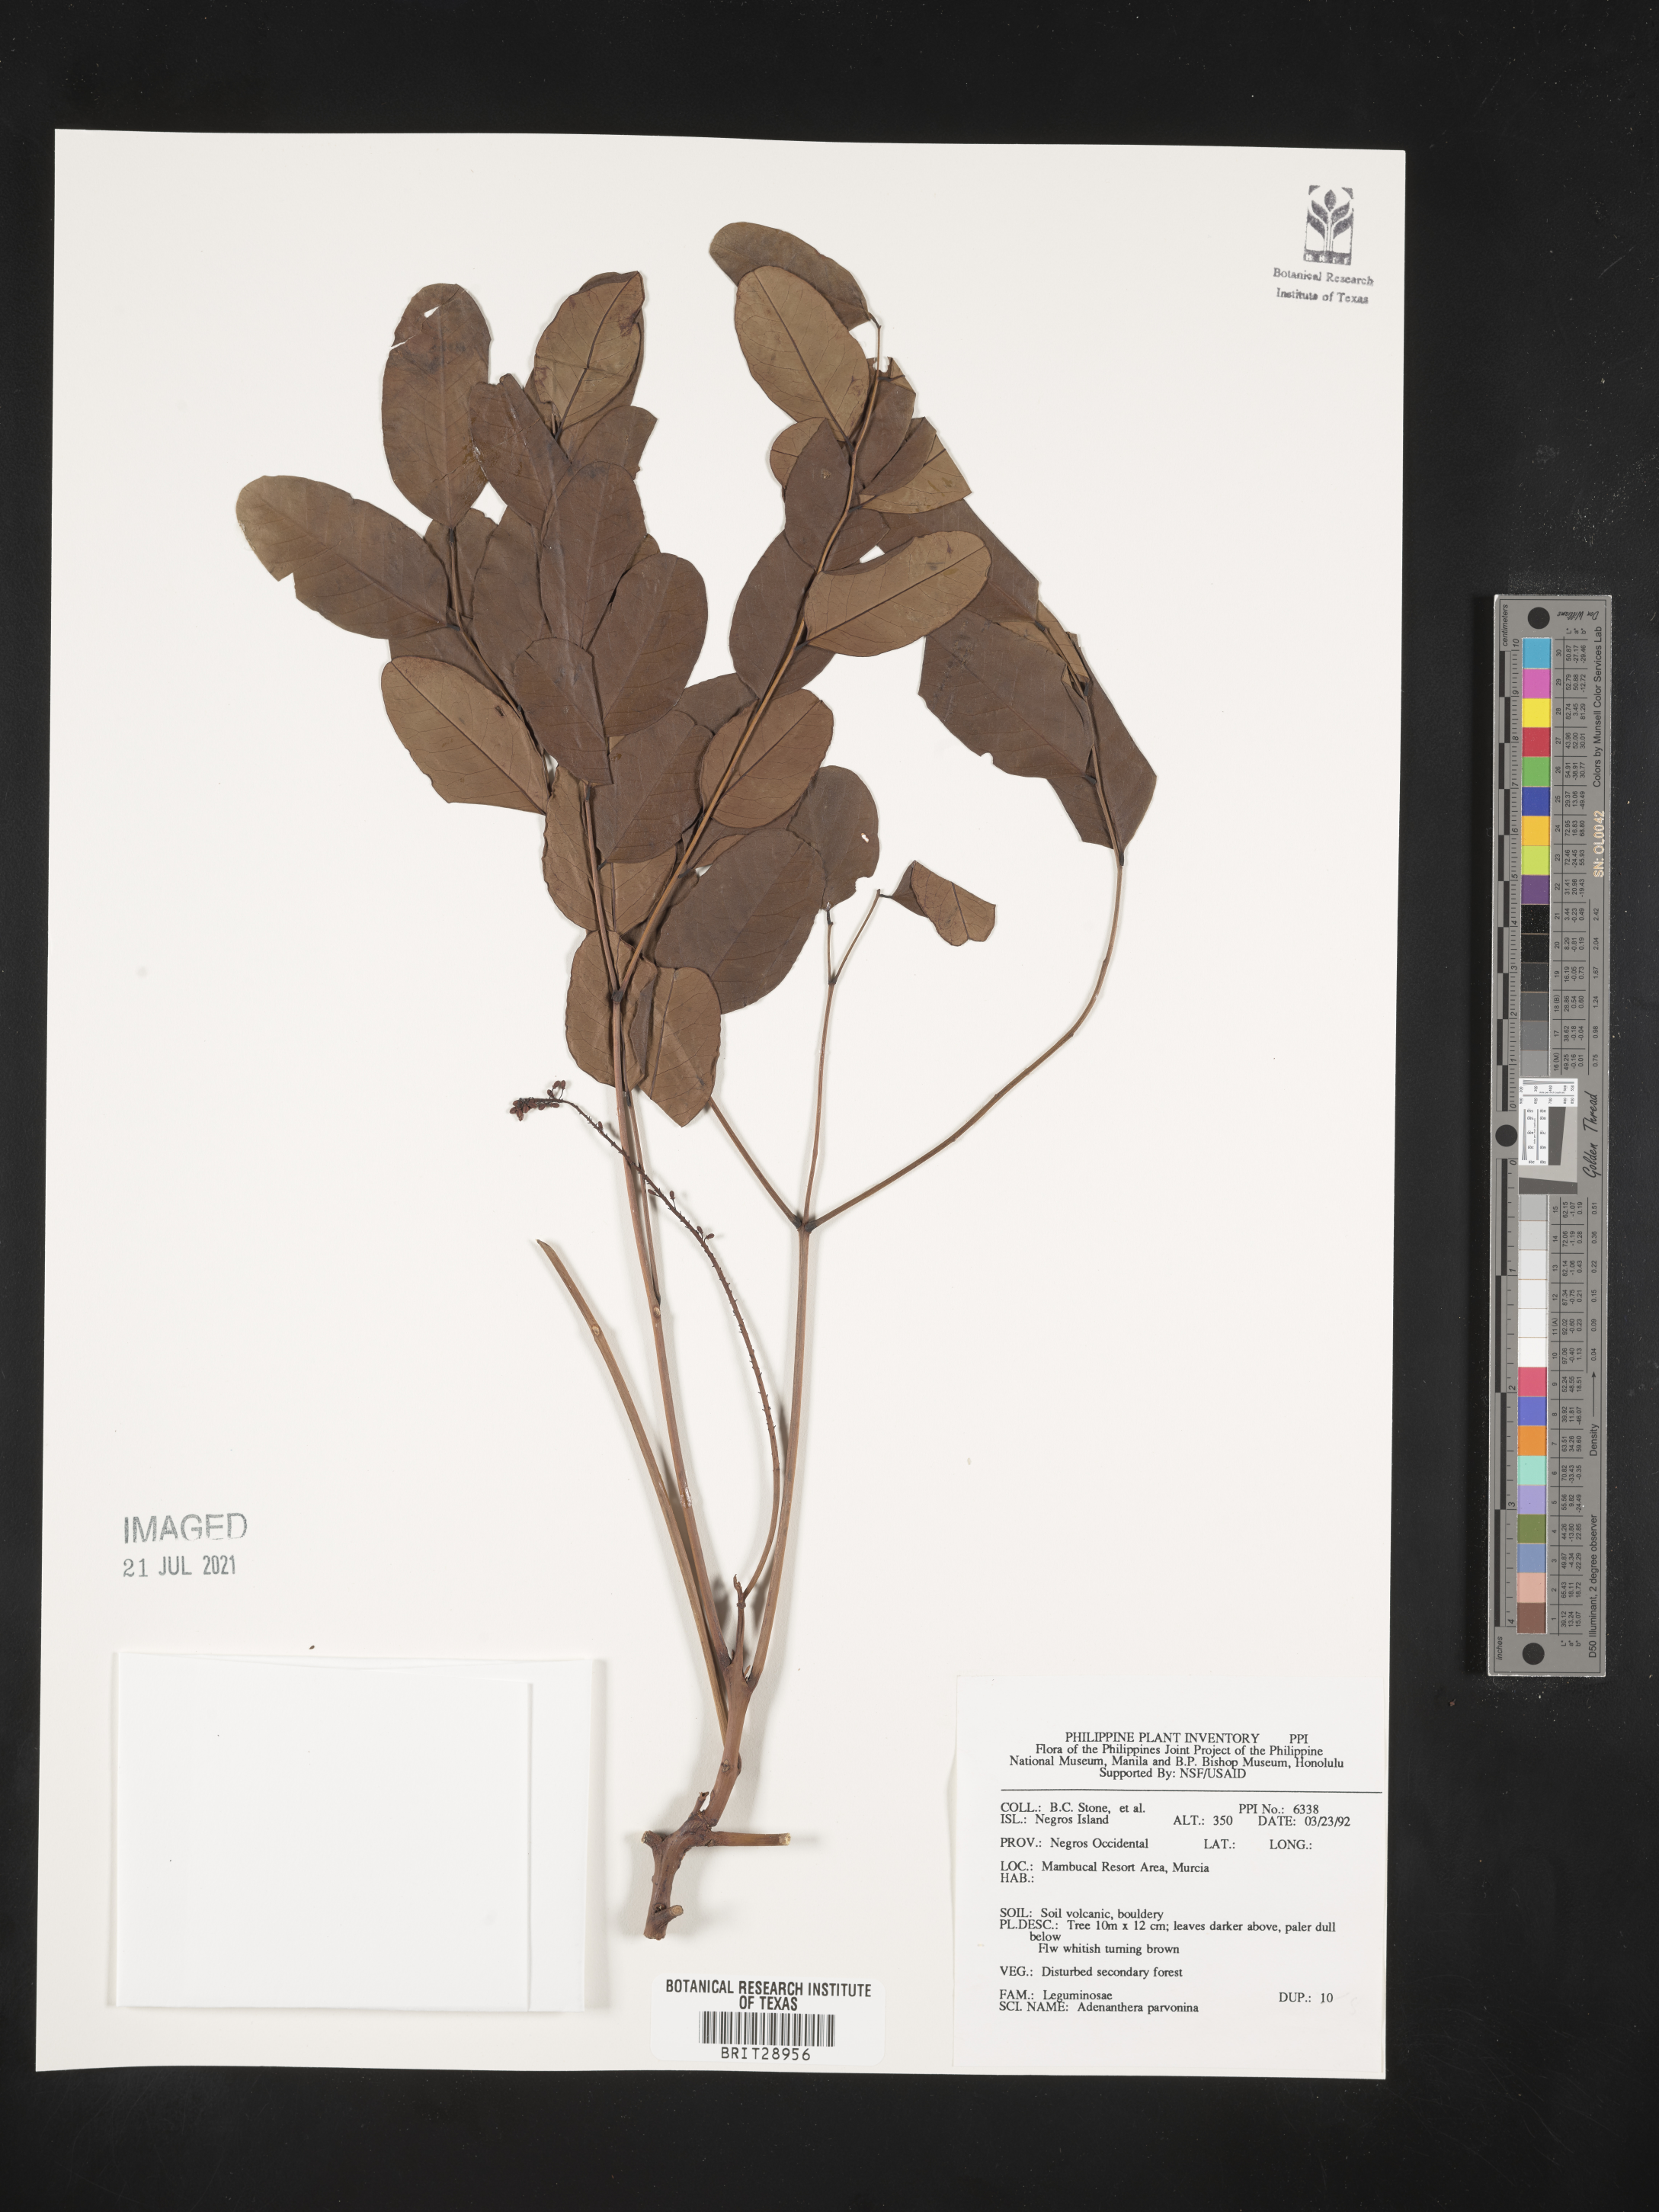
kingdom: Plantae
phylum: Tracheophyta
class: Magnoliopsida
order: Fabales
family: Fabaceae
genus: Adenanthera
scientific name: Adenanthera pavonina
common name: Red beadtree
